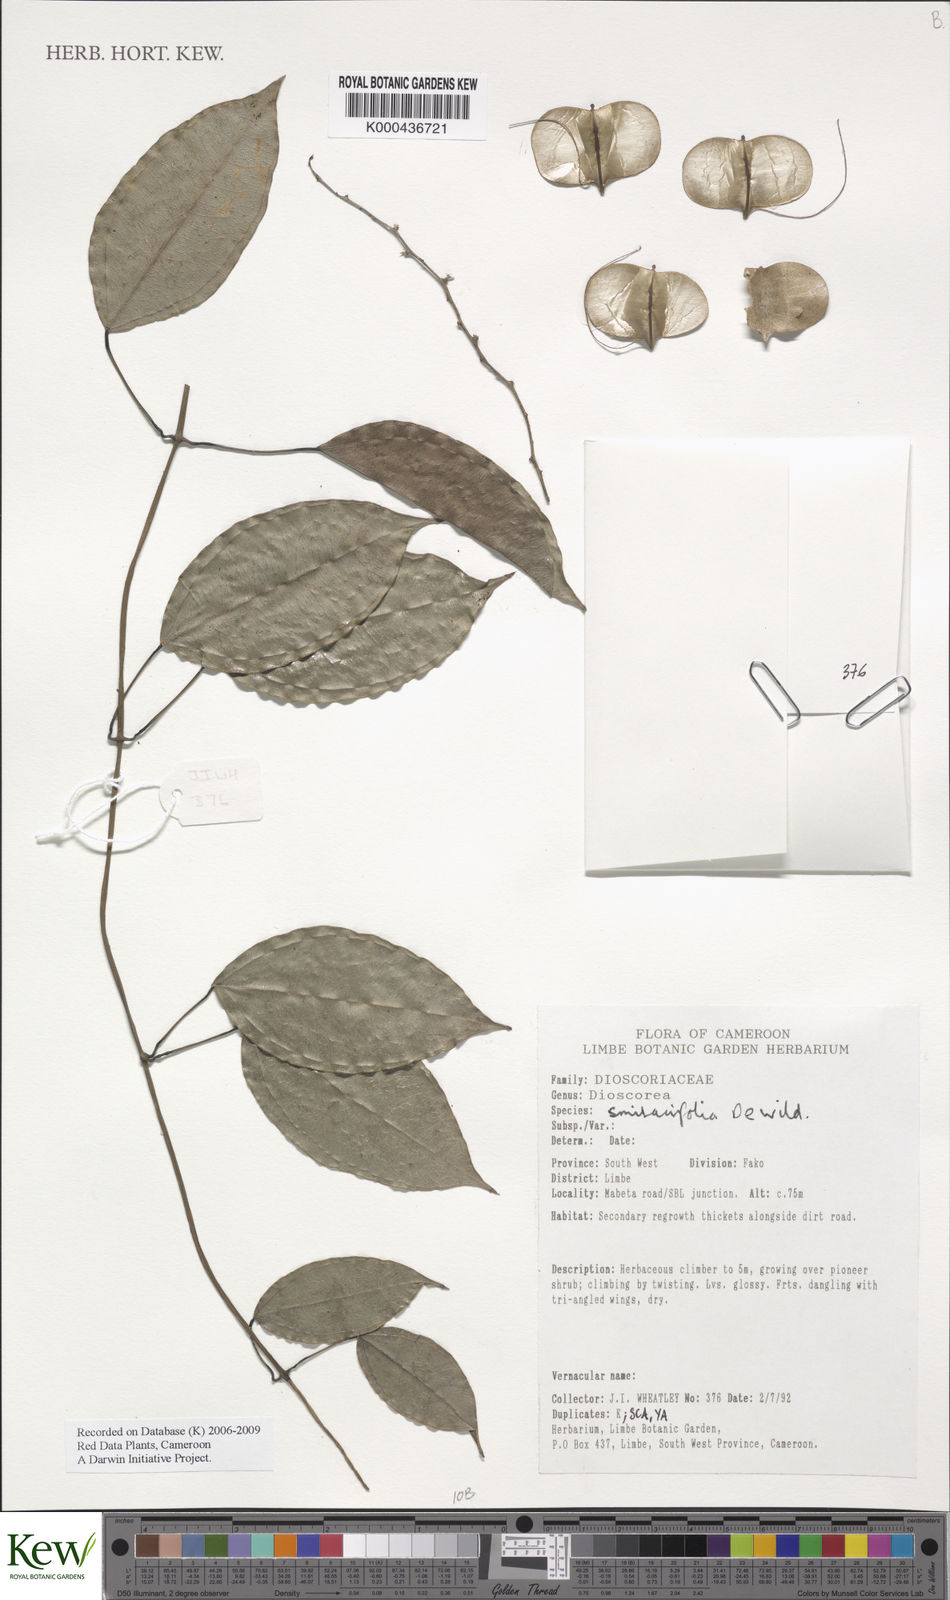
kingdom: Plantae
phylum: Tracheophyta
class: Liliopsida
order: Dioscoreales
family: Dioscoreaceae
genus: Dioscorea
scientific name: Dioscorea smilacifolia
